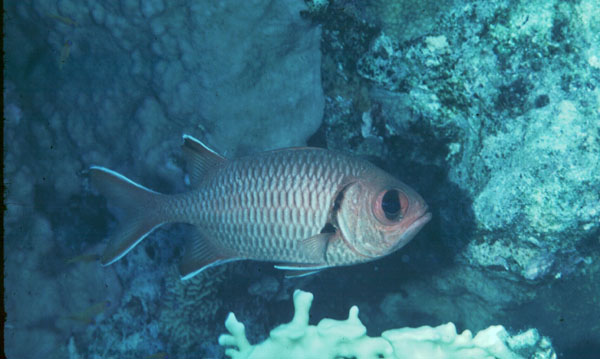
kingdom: Animalia
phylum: Chordata
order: Beryciformes
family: Holocentridae
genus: Myripristis
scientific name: Myripristis murdjan
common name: Big-eye soldierfish
